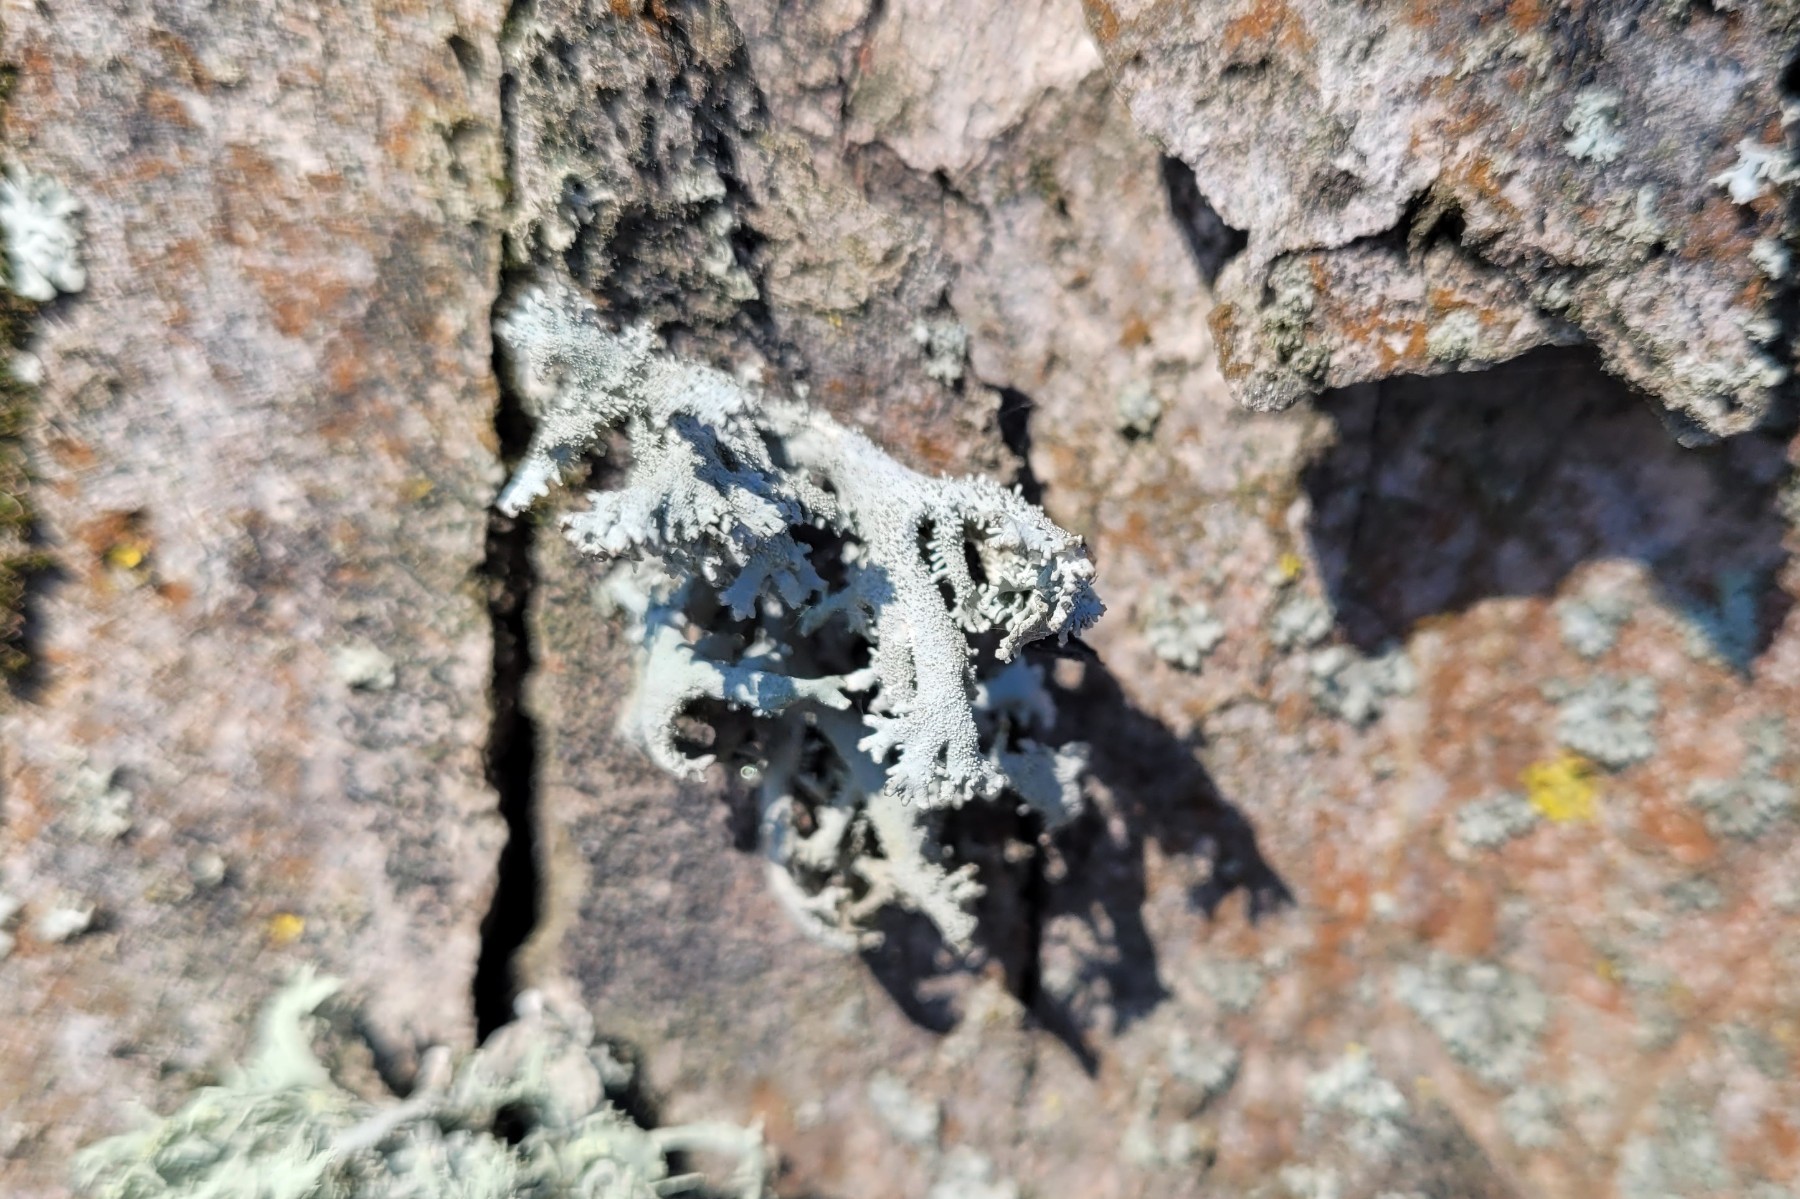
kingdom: Fungi
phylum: Ascomycota
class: Lecanoromycetes
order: Lecanorales
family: Parmeliaceae
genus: Pseudevernia
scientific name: Pseudevernia furfuracea
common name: grå fyrrelav
